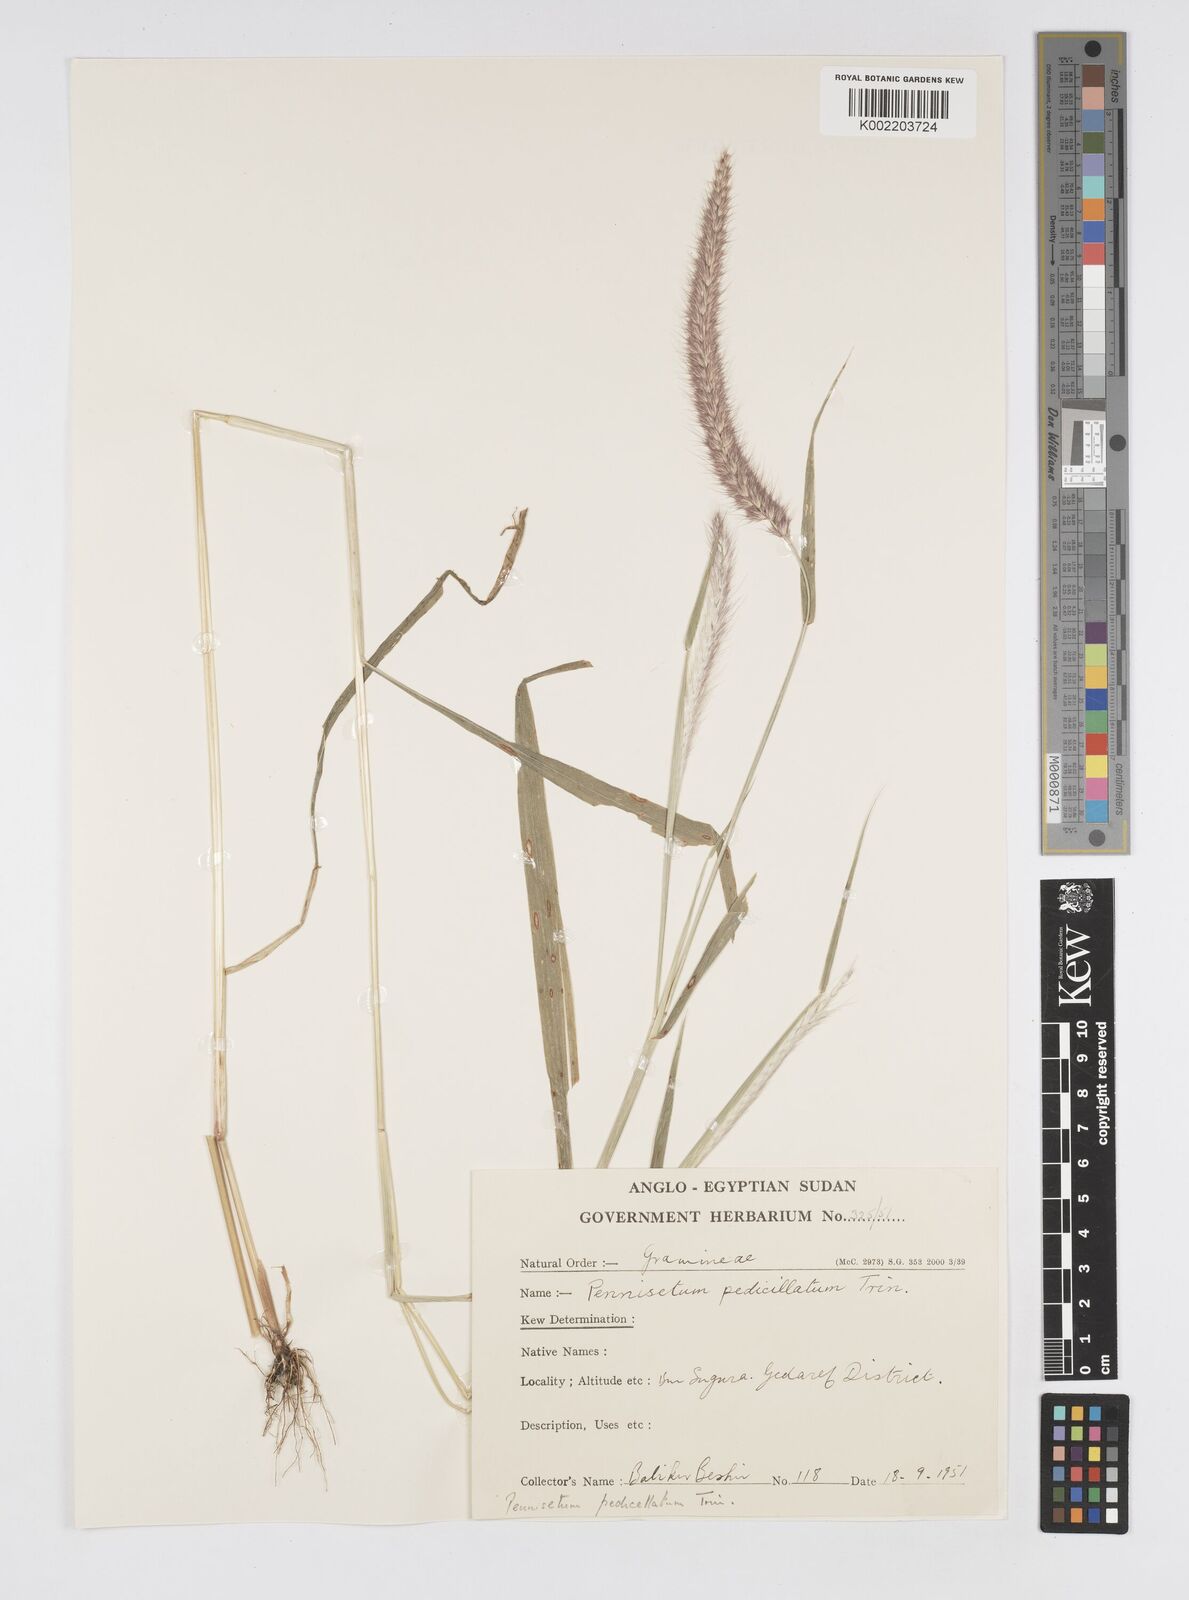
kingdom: Plantae
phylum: Tracheophyta
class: Liliopsida
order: Poales
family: Poaceae
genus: Cenchrus
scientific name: Cenchrus pedicellatus
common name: Hairy fountain grass
